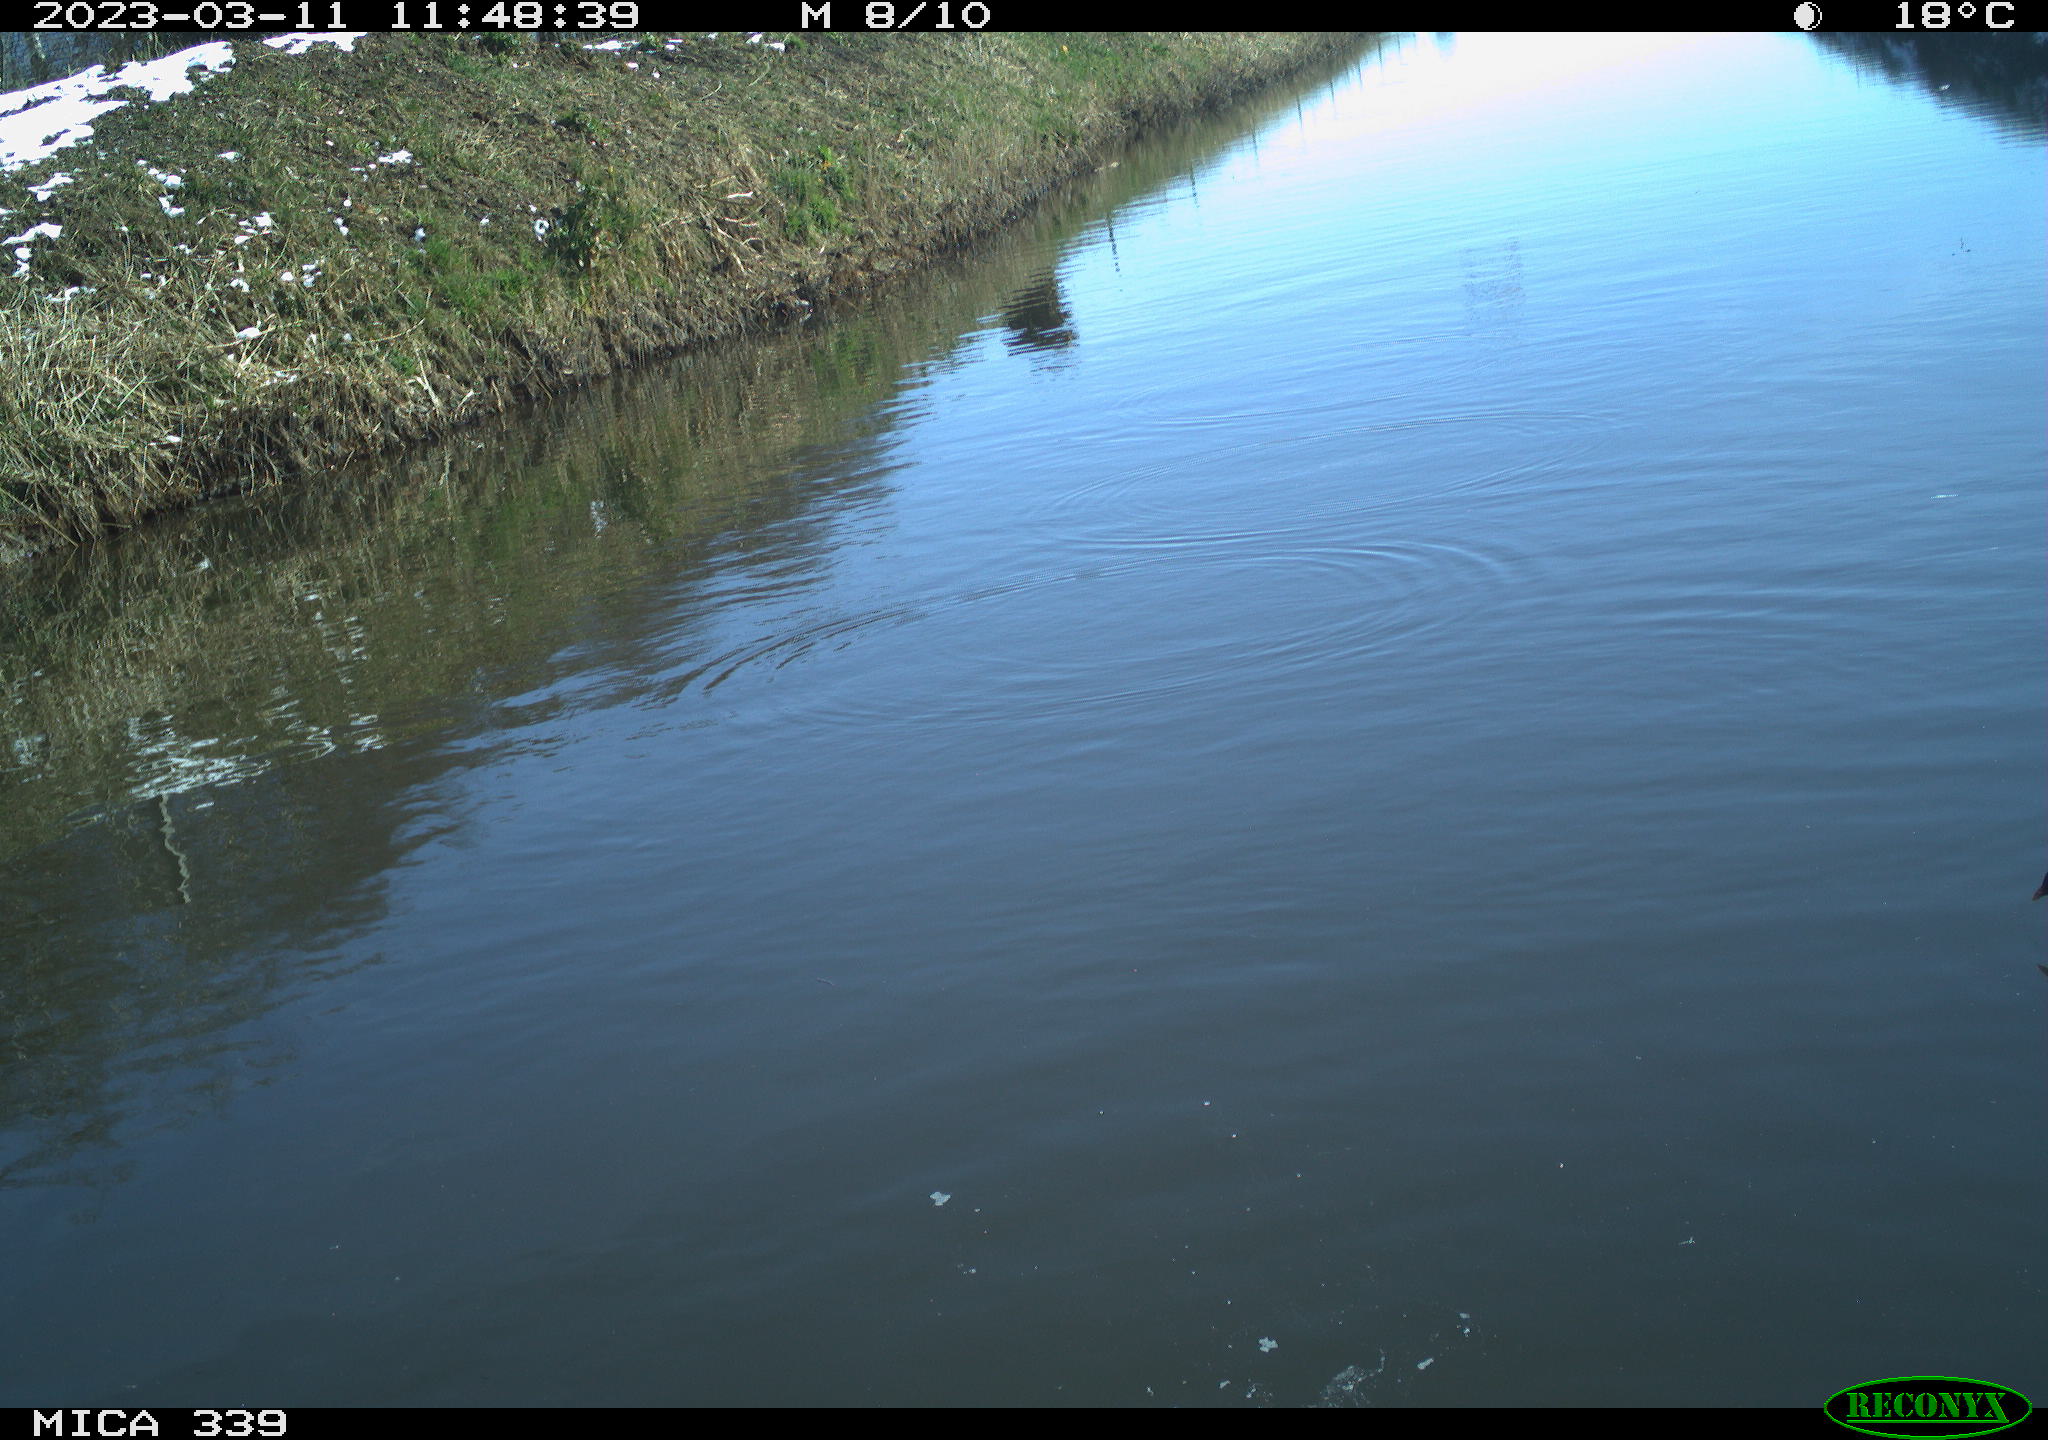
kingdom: Animalia
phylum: Chordata
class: Aves
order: Pelecaniformes
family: Ardeidae
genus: Ardea
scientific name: Ardea cinerea
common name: Grey heron
